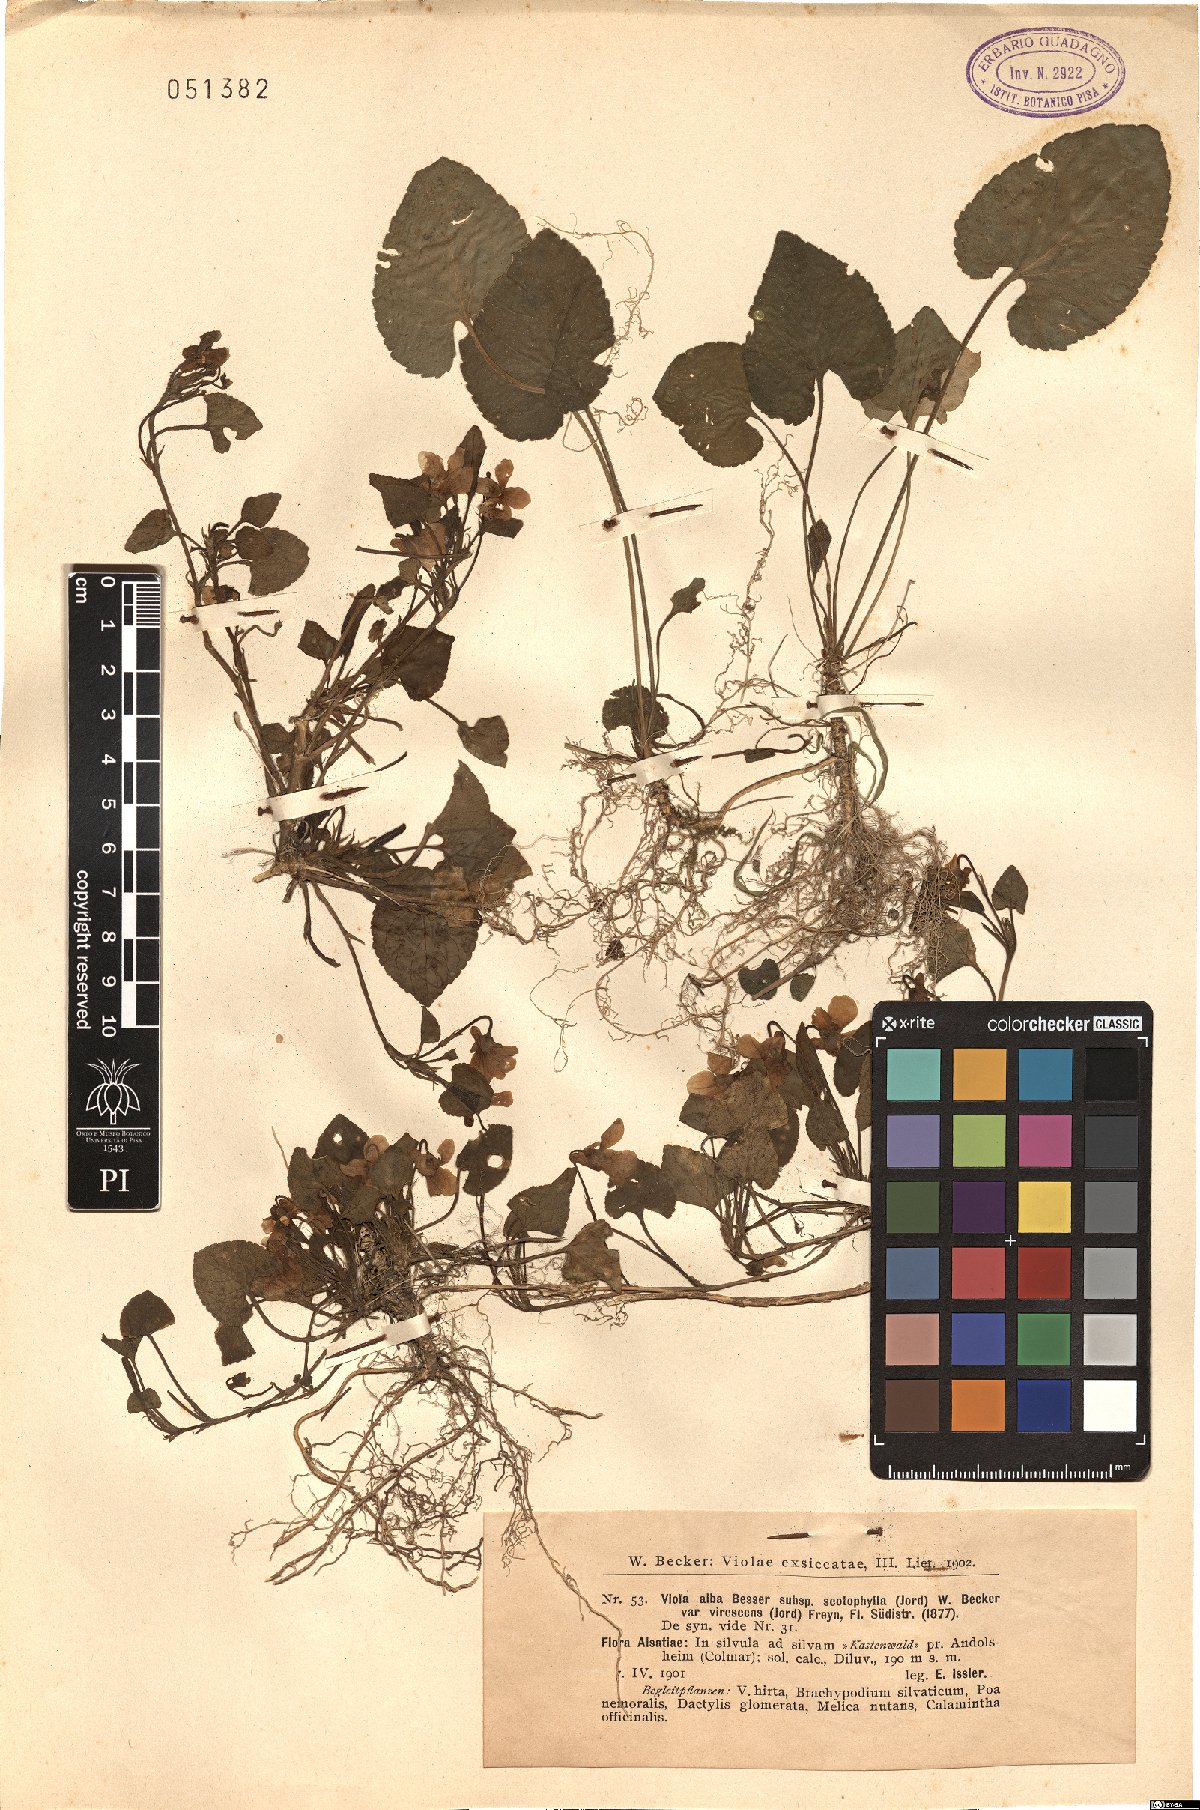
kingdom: Plantae
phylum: Tracheophyta
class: Magnoliopsida
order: Malpighiales
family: Violaceae
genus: Viola
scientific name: Viola alba
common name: White violet
